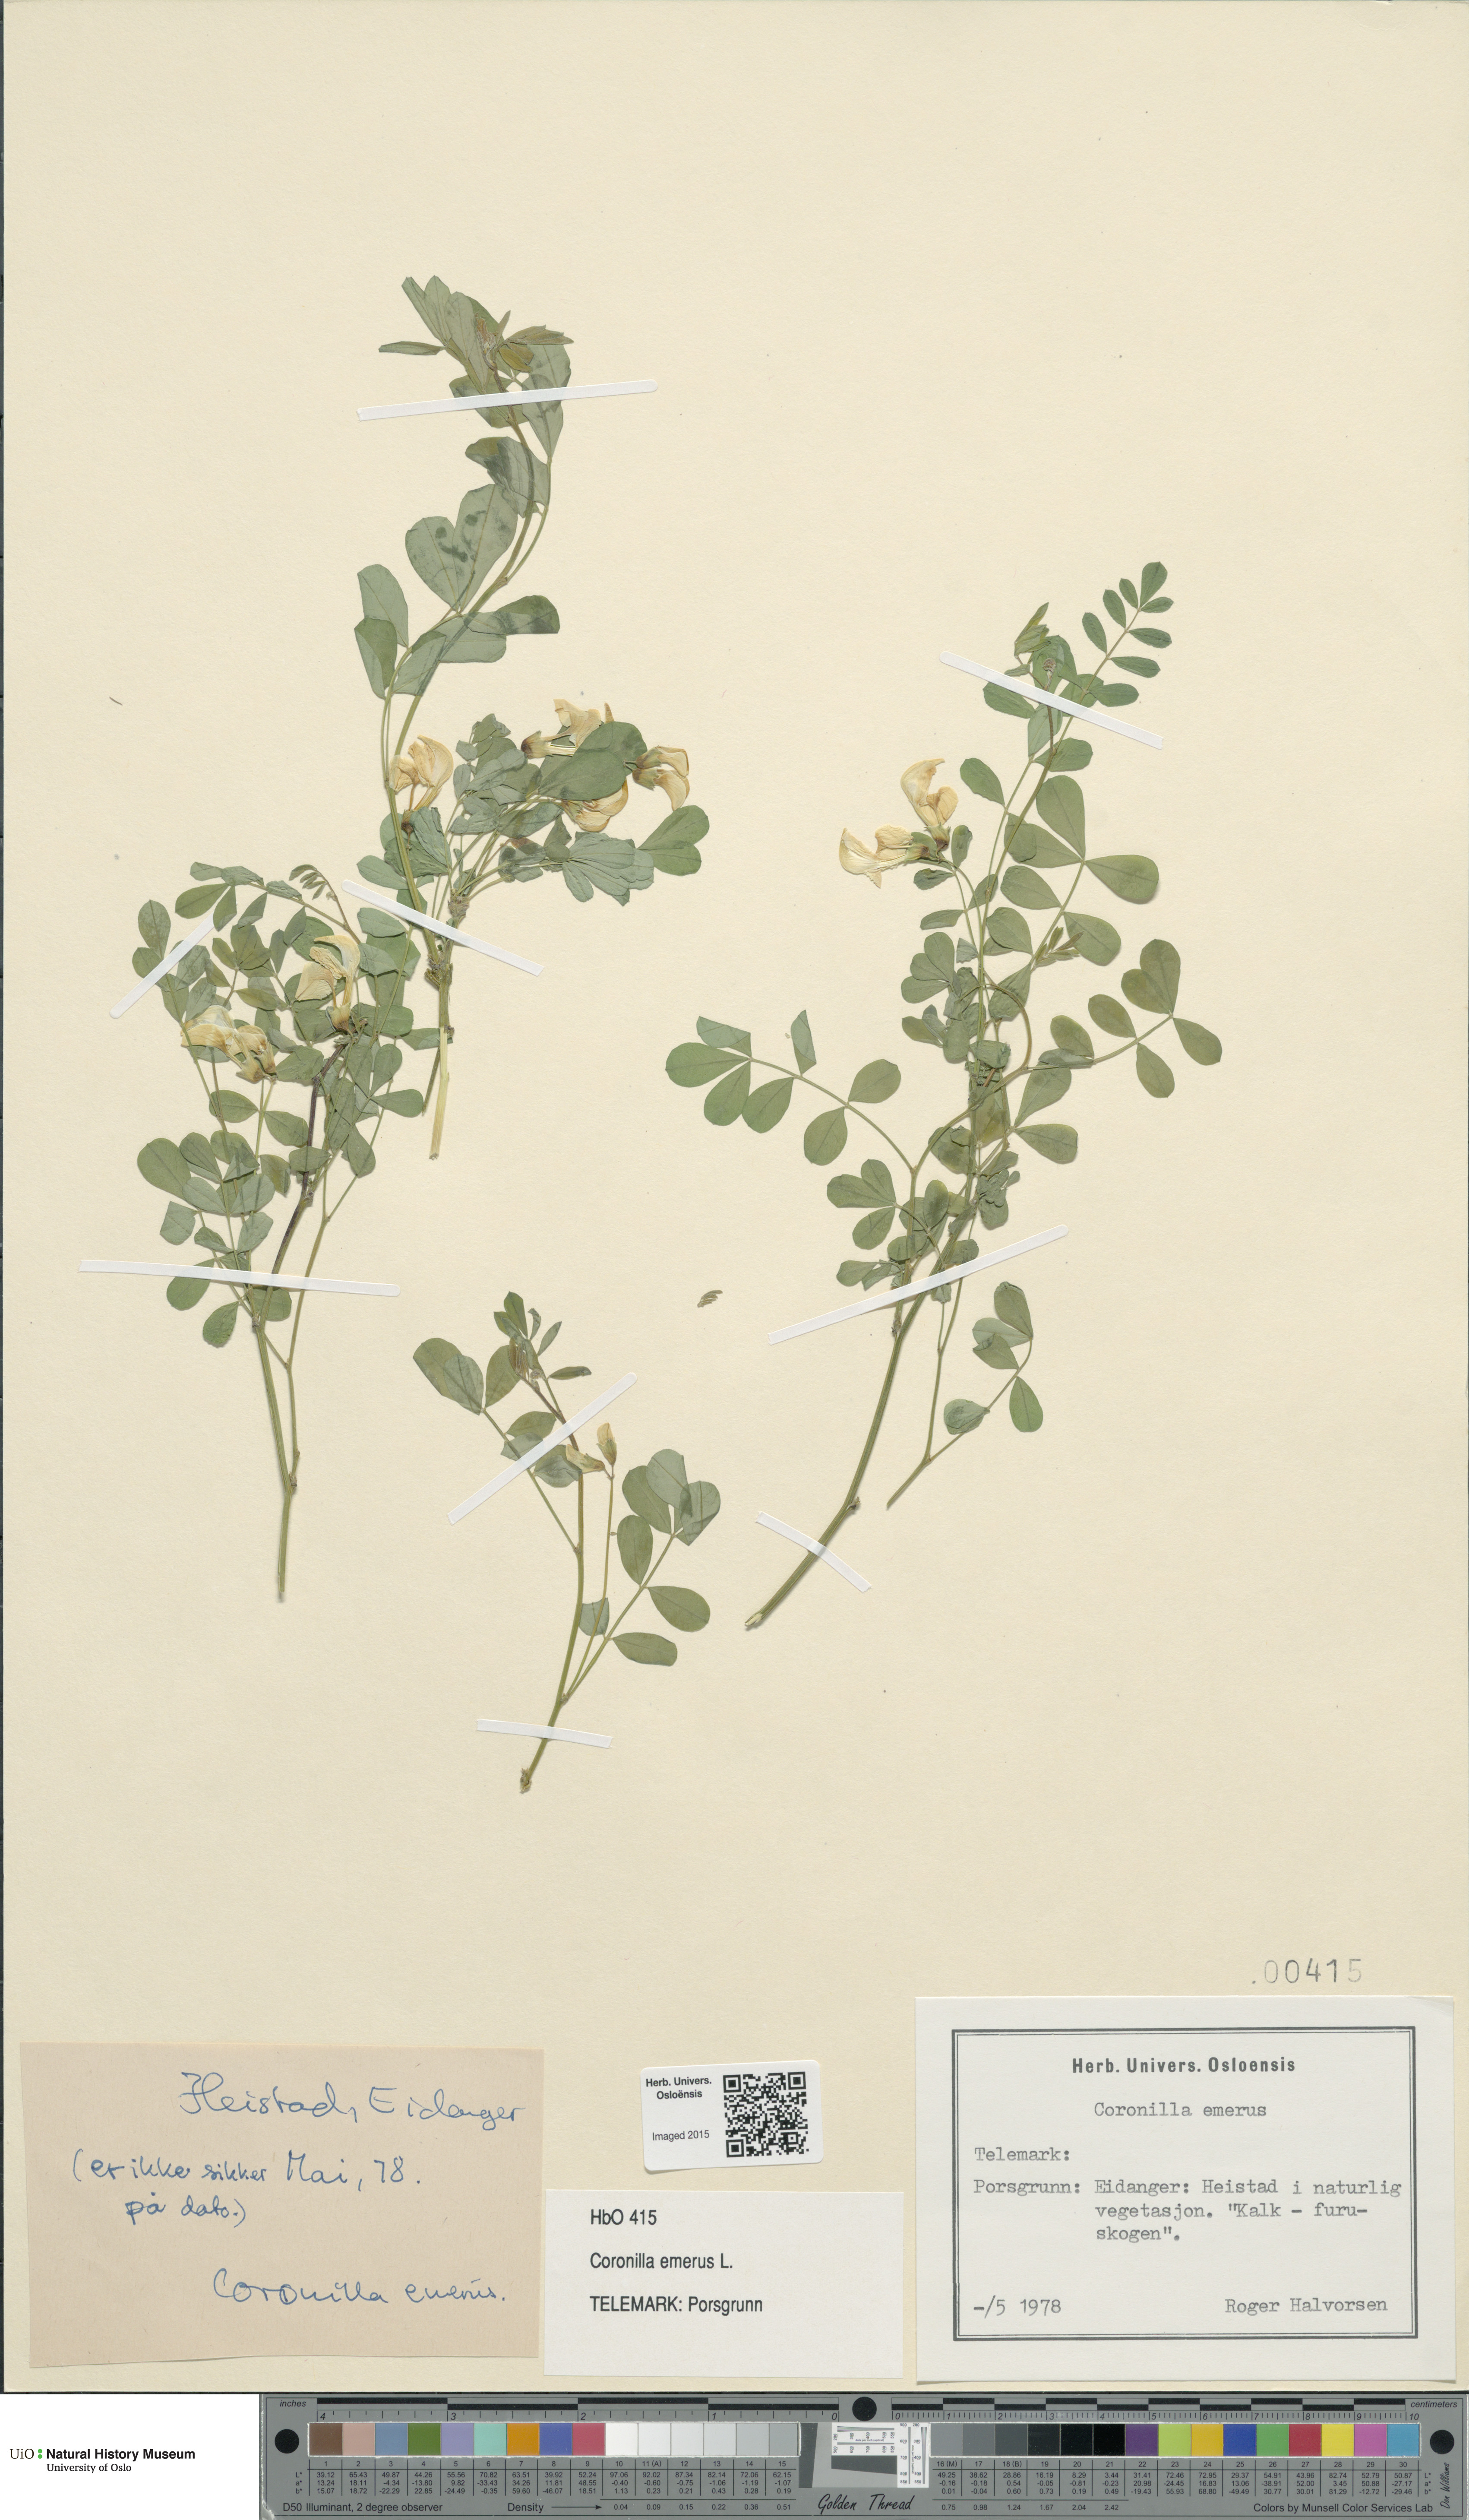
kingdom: Plantae
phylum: Tracheophyta
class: Magnoliopsida
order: Fabales
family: Fabaceae
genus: Hippocrepis
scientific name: Hippocrepis emerus
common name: Scorpion senna
